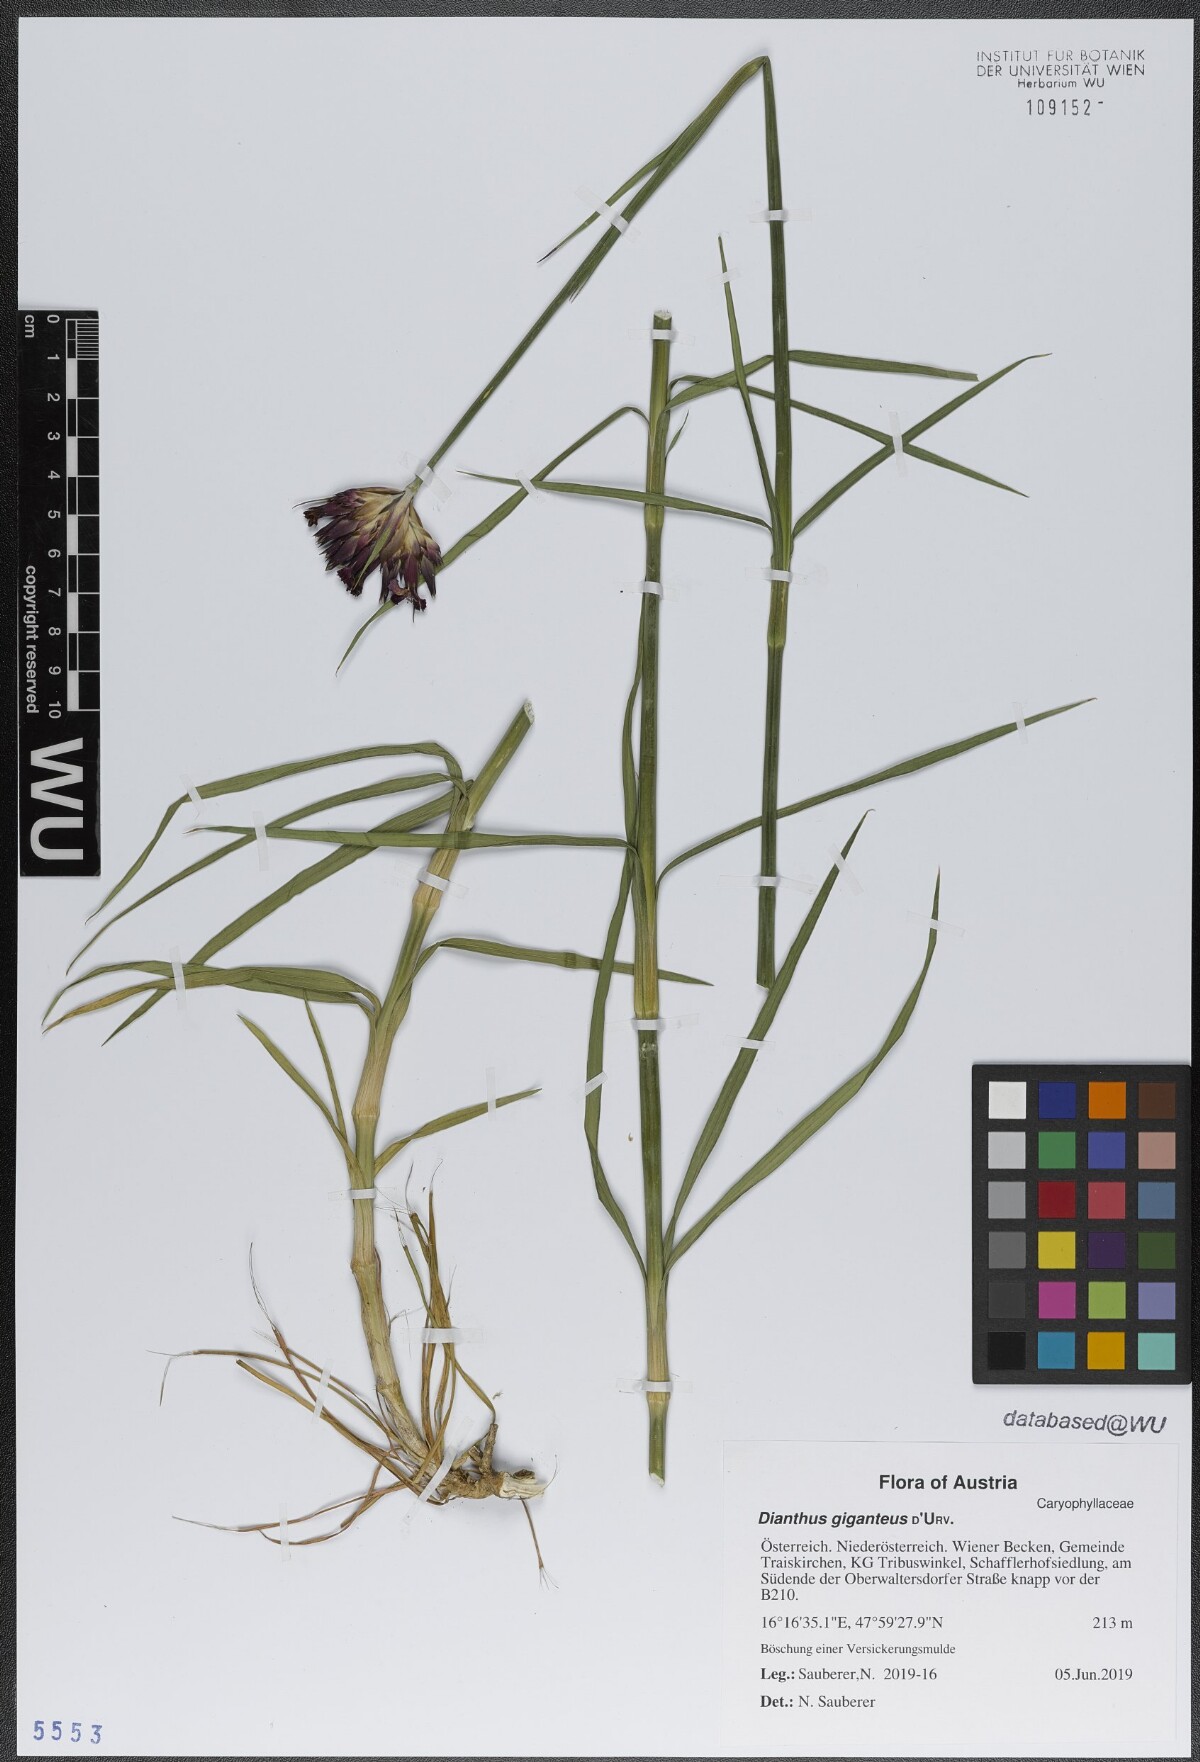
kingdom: Plantae
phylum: Tracheophyta
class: Magnoliopsida
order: Caryophyllales
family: Caryophyllaceae
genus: Dianthus
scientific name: Dianthus giganteus
